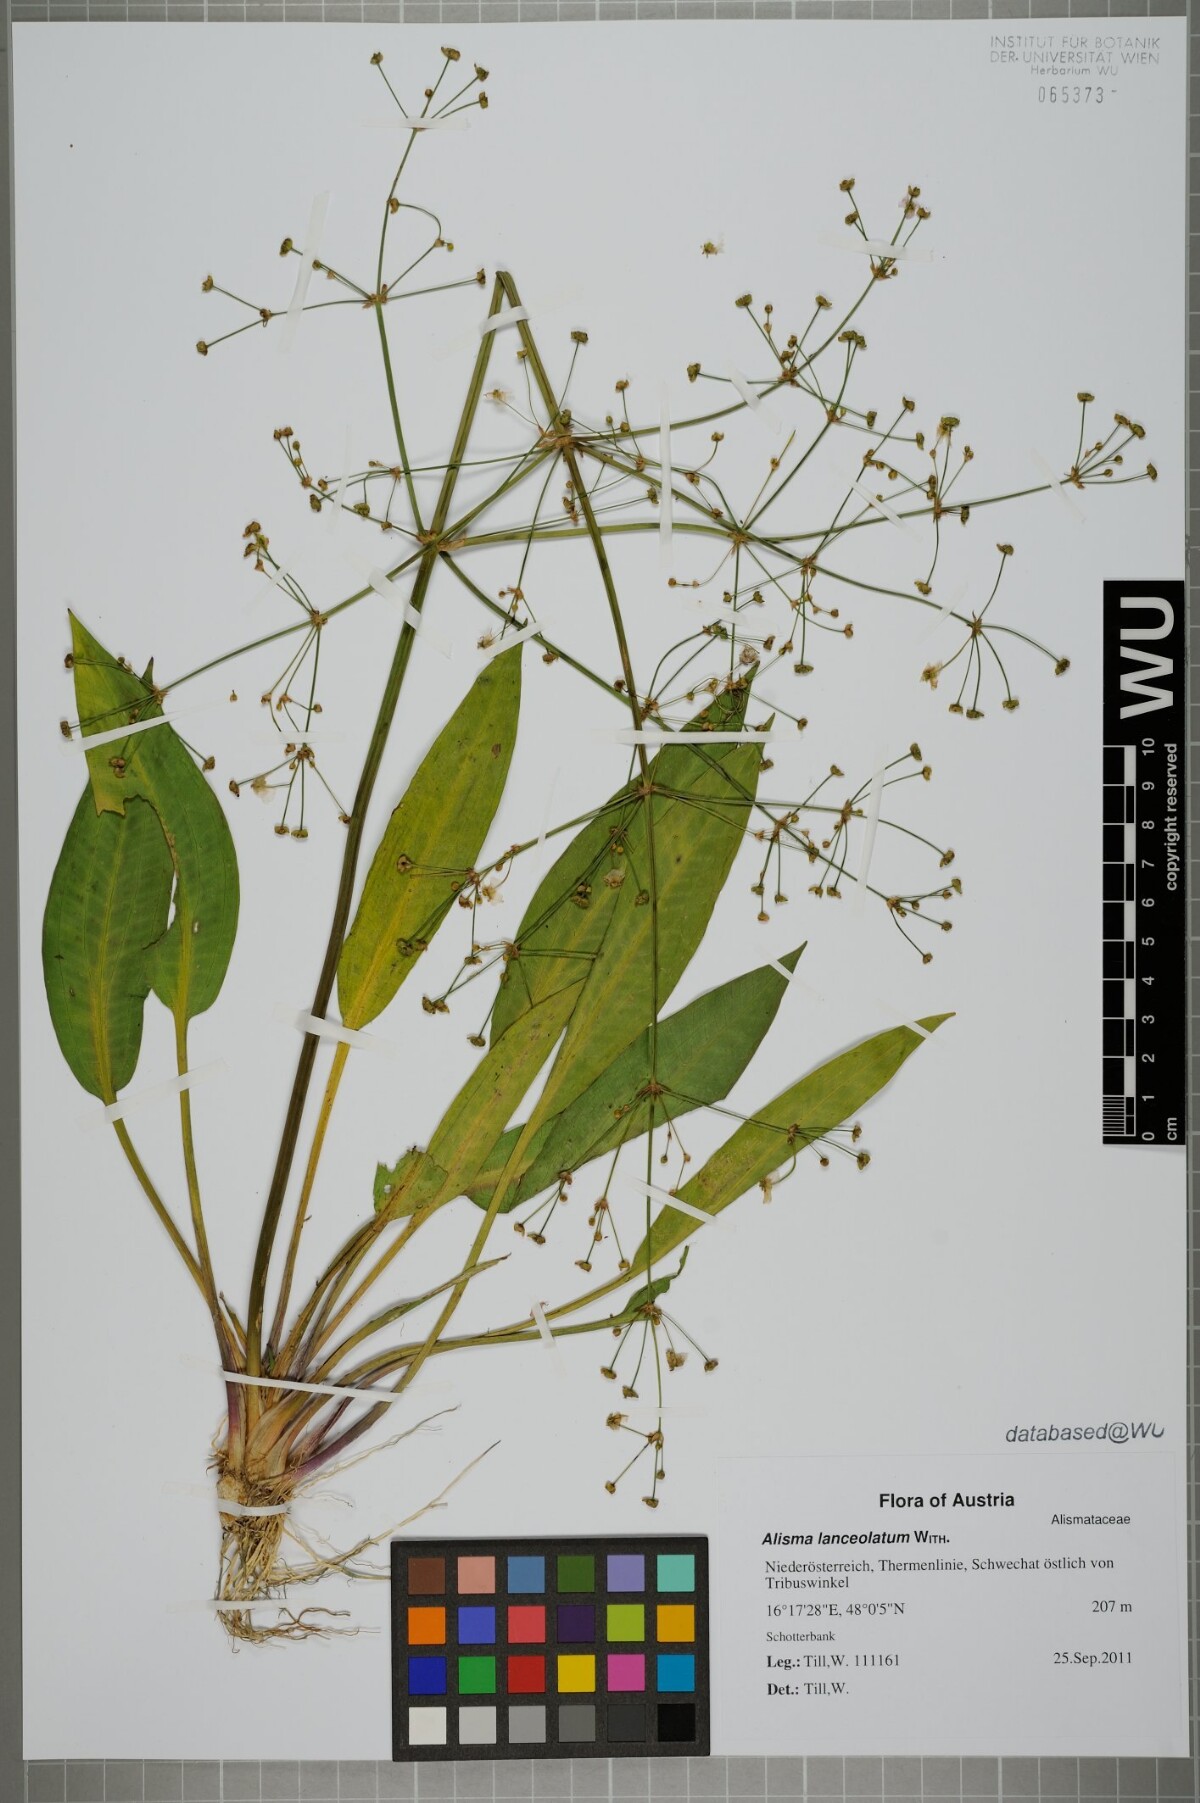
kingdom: Plantae
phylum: Tracheophyta
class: Liliopsida
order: Alismatales
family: Alismataceae
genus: Alisma
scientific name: Alisma lanceolatum
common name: Narrow-leaved water-plantain
